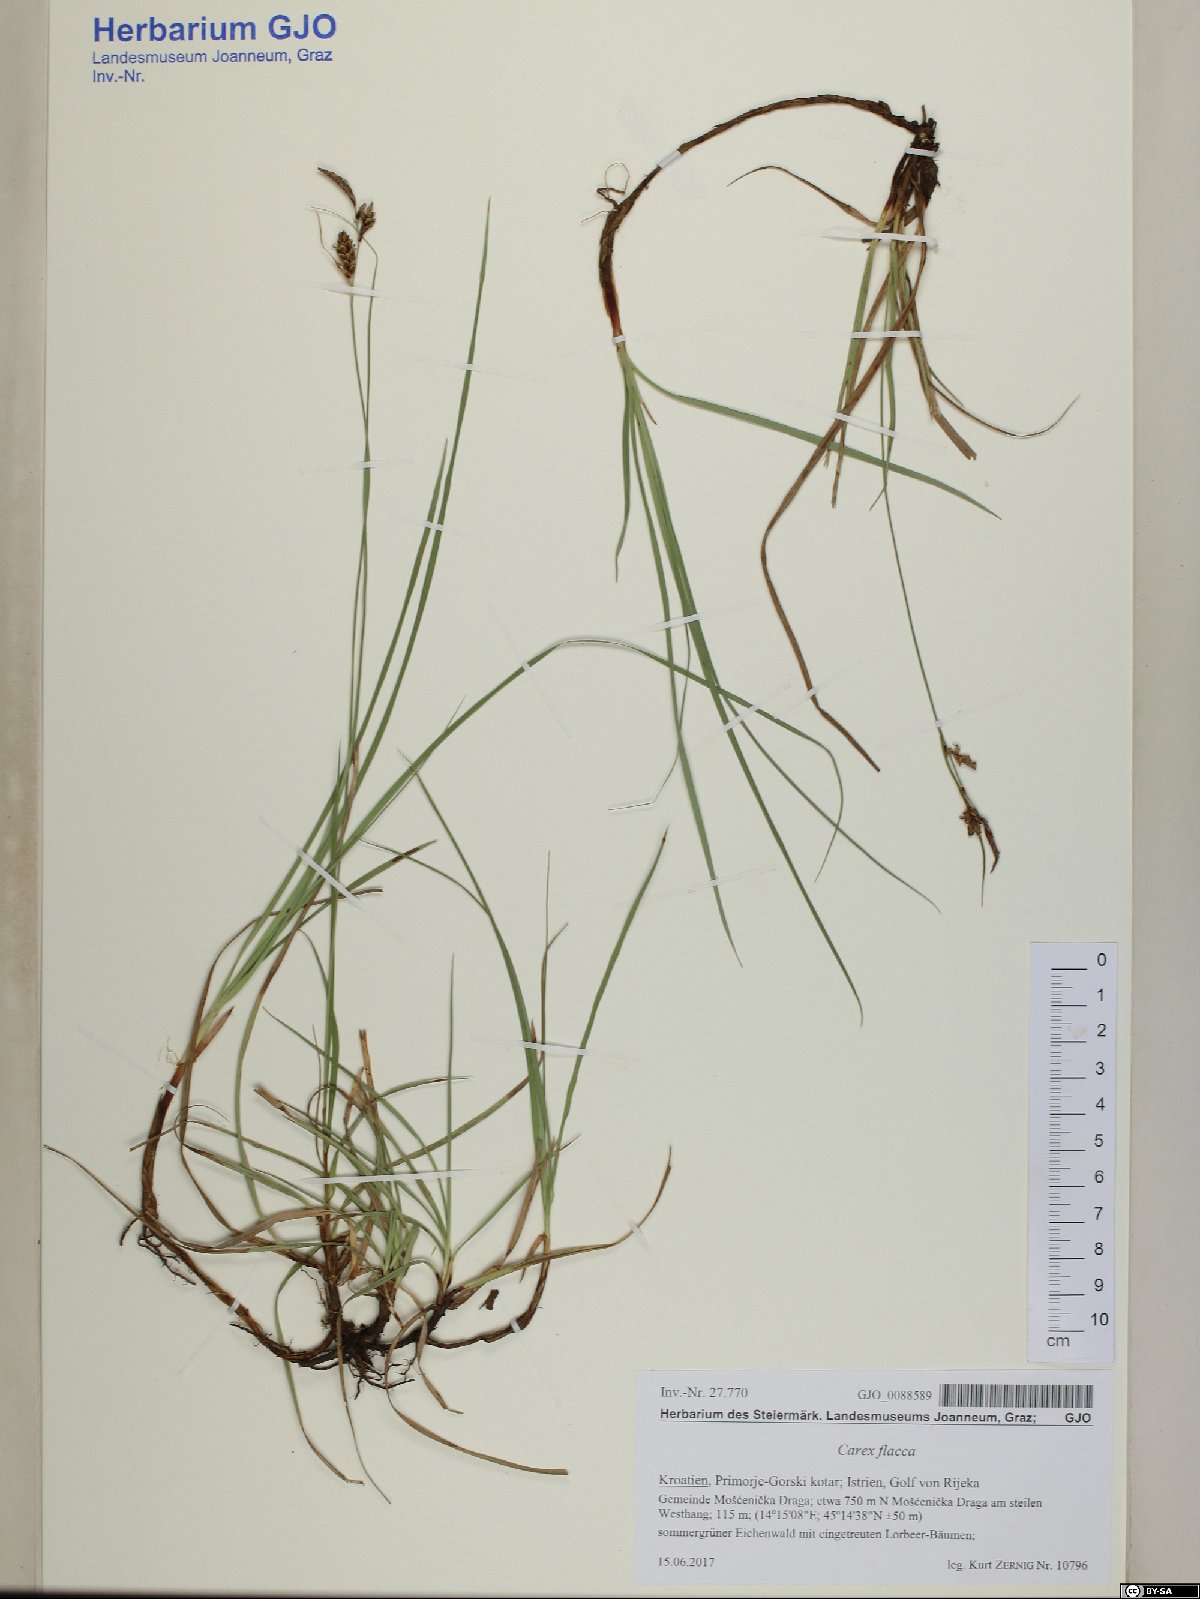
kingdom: Plantae
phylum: Tracheophyta
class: Liliopsida
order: Poales
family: Cyperaceae
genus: Carex
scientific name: Carex flacca
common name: Glaucous sedge
